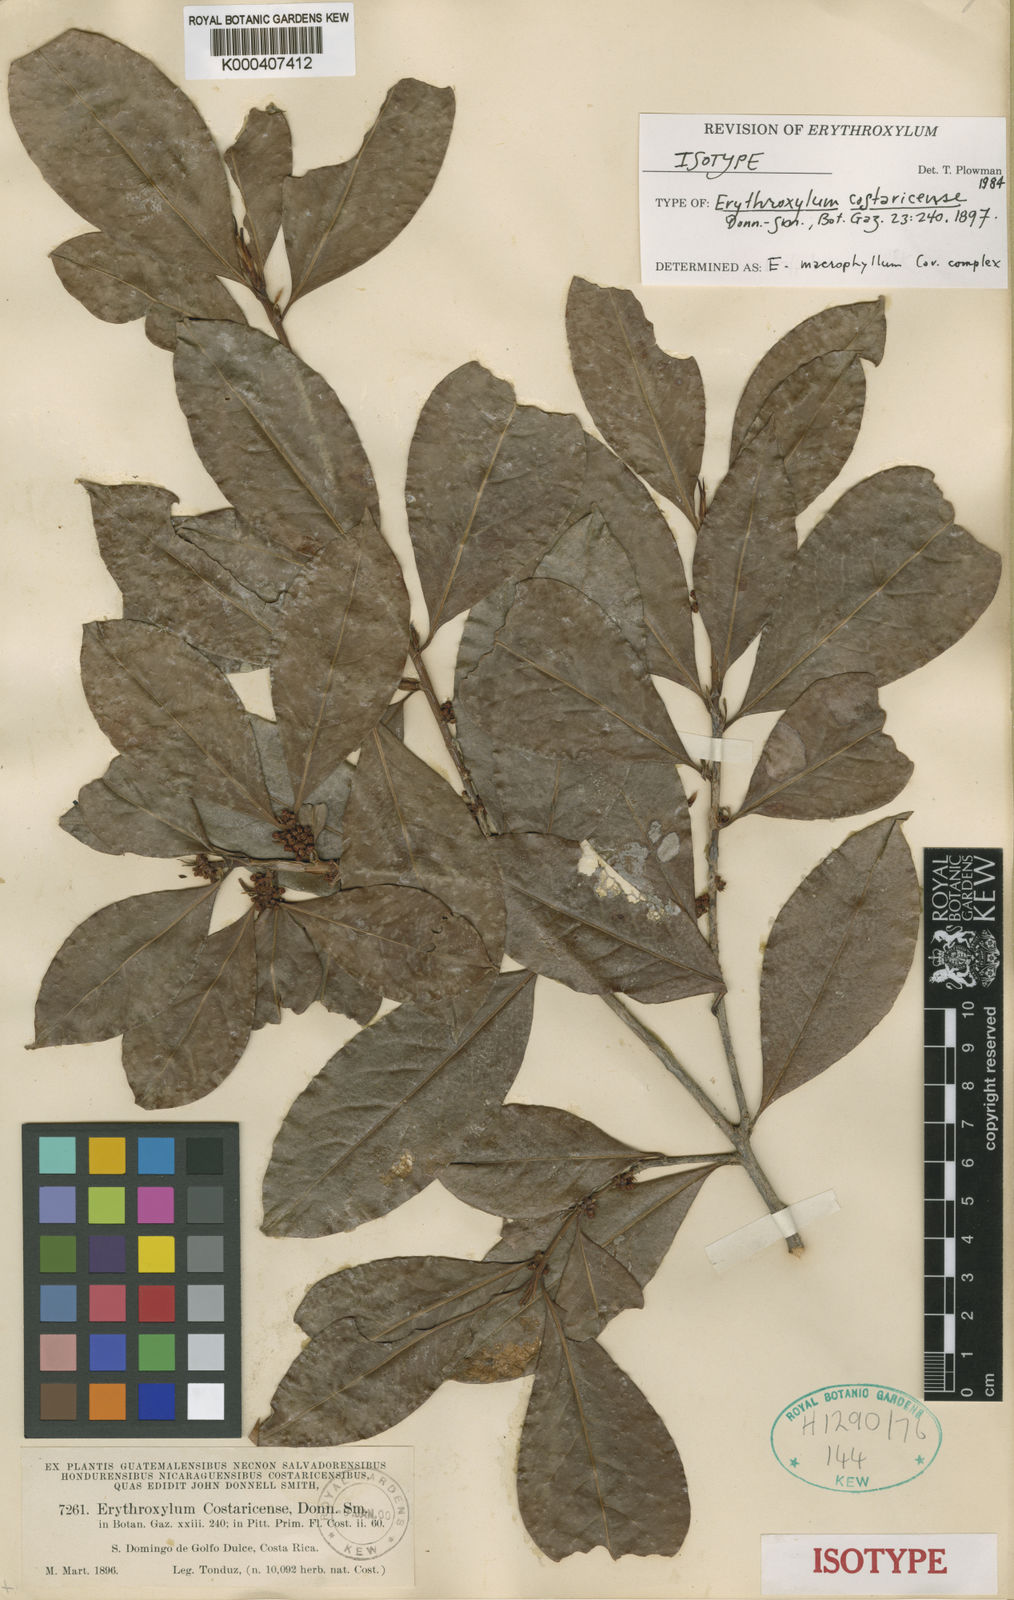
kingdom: Plantae
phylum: Tracheophyta
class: Magnoliopsida
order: Malpighiales
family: Erythroxylaceae
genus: Erythroxylum
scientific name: Erythroxylum macrophyllum
